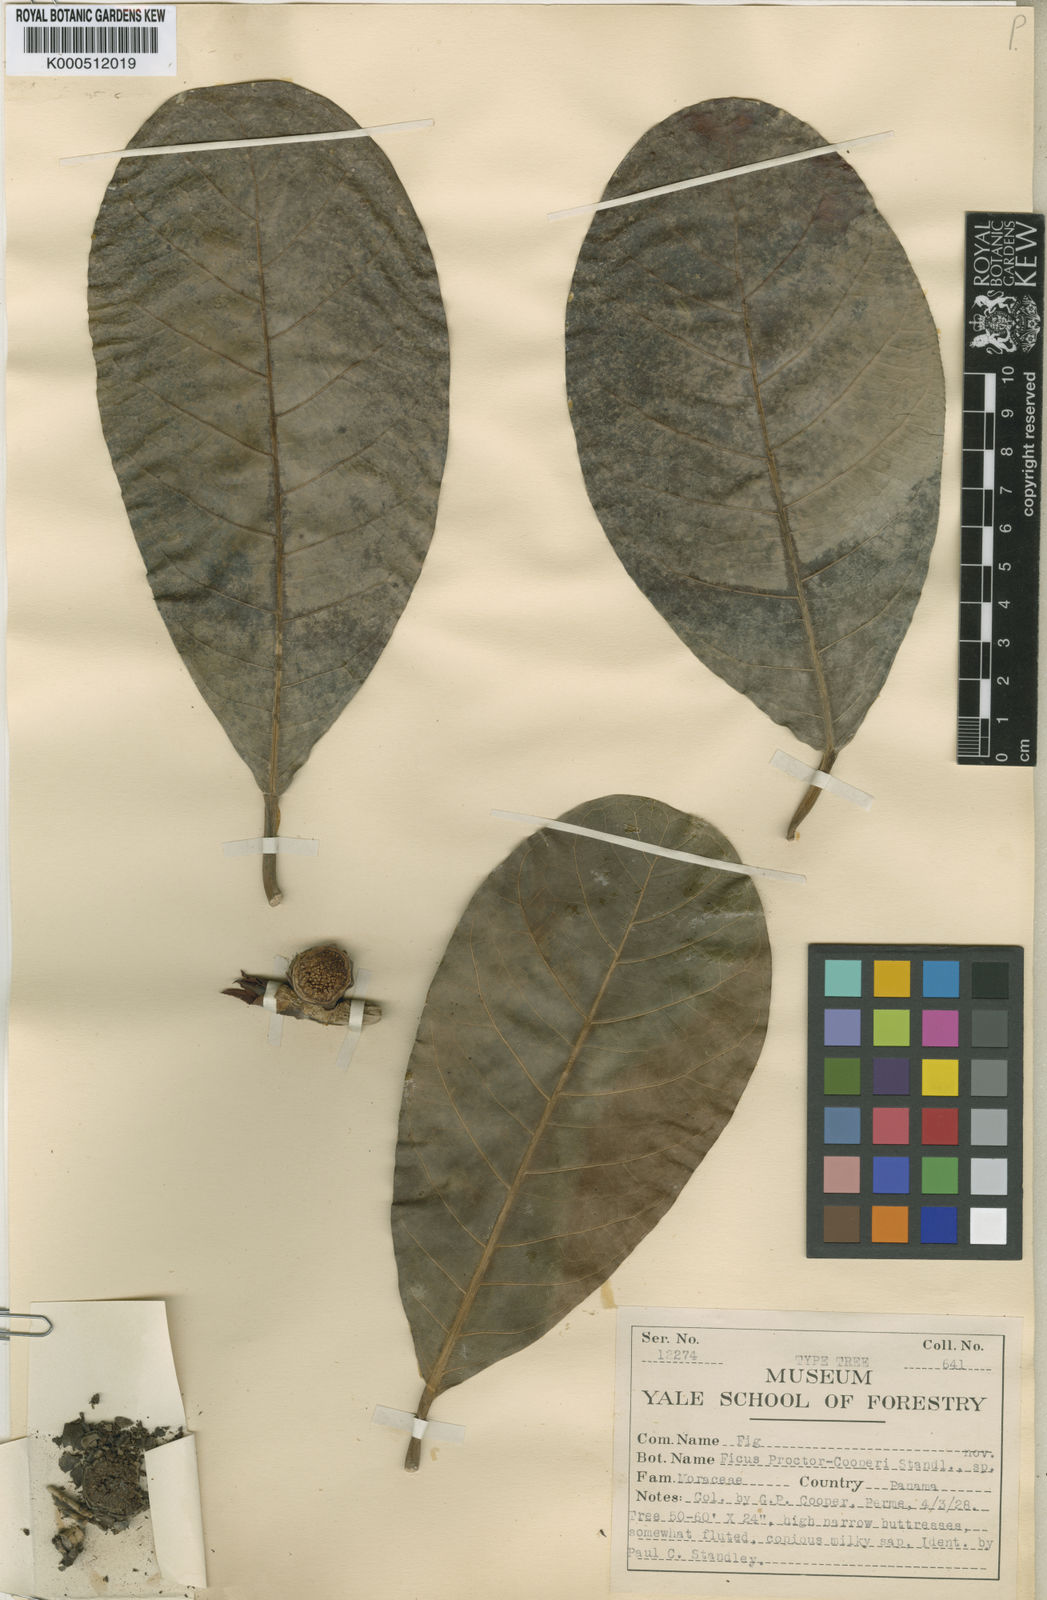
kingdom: Plantae
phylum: Tracheophyta
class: Magnoliopsida
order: Rosales
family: Moraceae
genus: Ficus
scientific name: Ficus obtusifolia
